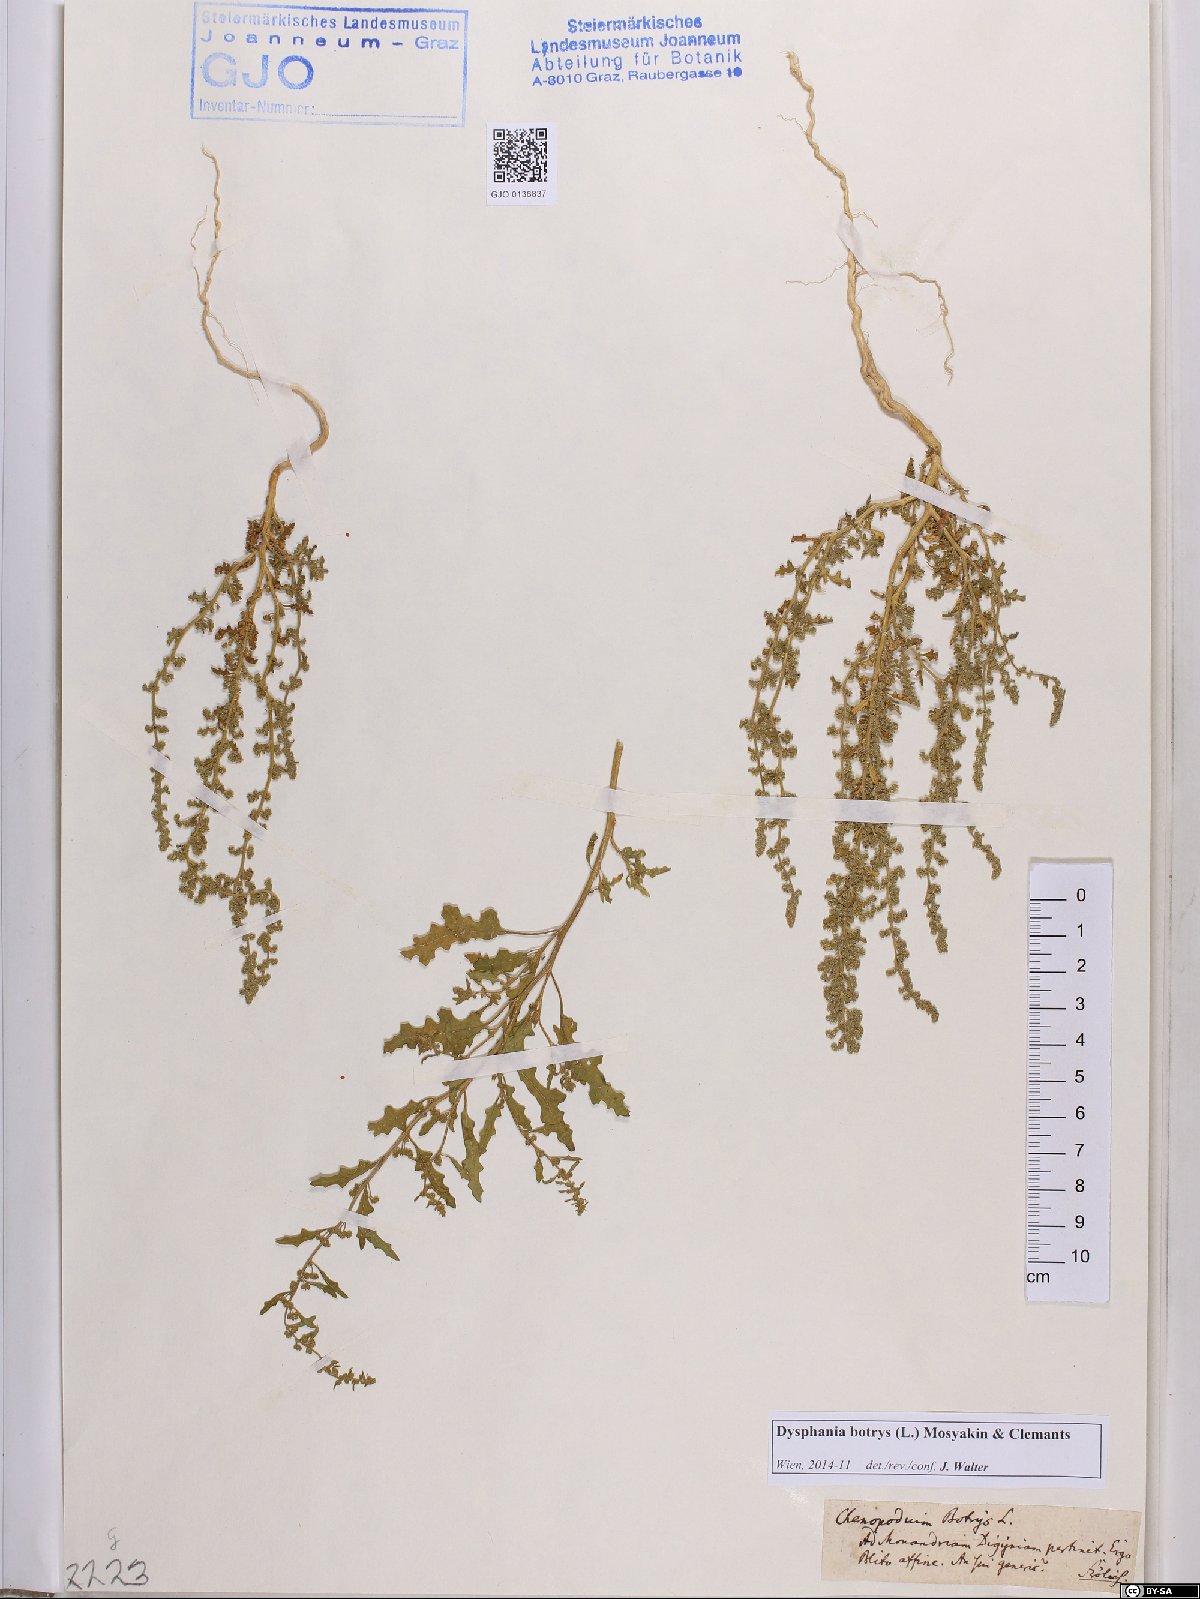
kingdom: Plantae
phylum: Tracheophyta
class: Magnoliopsida
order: Caryophyllales
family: Amaranthaceae
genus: Dysphania
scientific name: Dysphania botrys
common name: Feather-geranium
